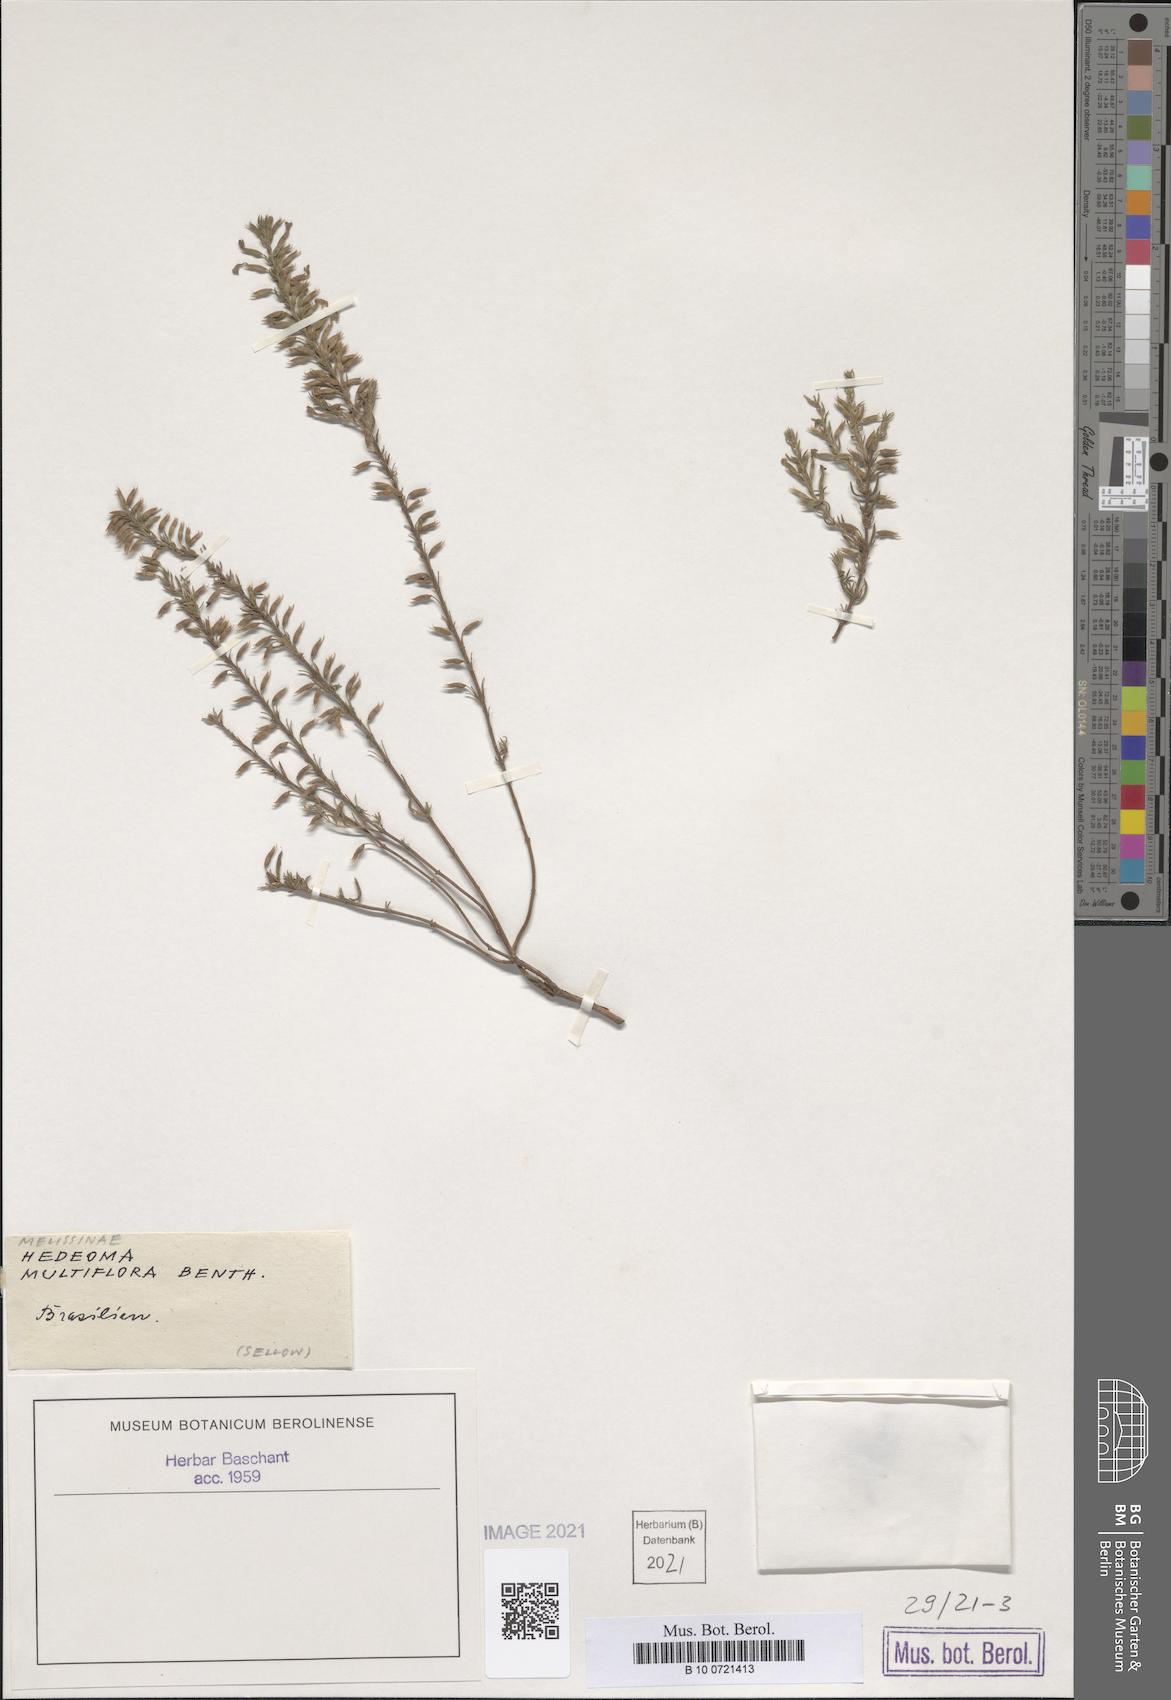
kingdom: Plantae
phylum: Tracheophyta
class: Magnoliopsida
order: Lamiales
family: Lamiaceae
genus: Hedeoma
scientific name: Hedeoma multiflora
